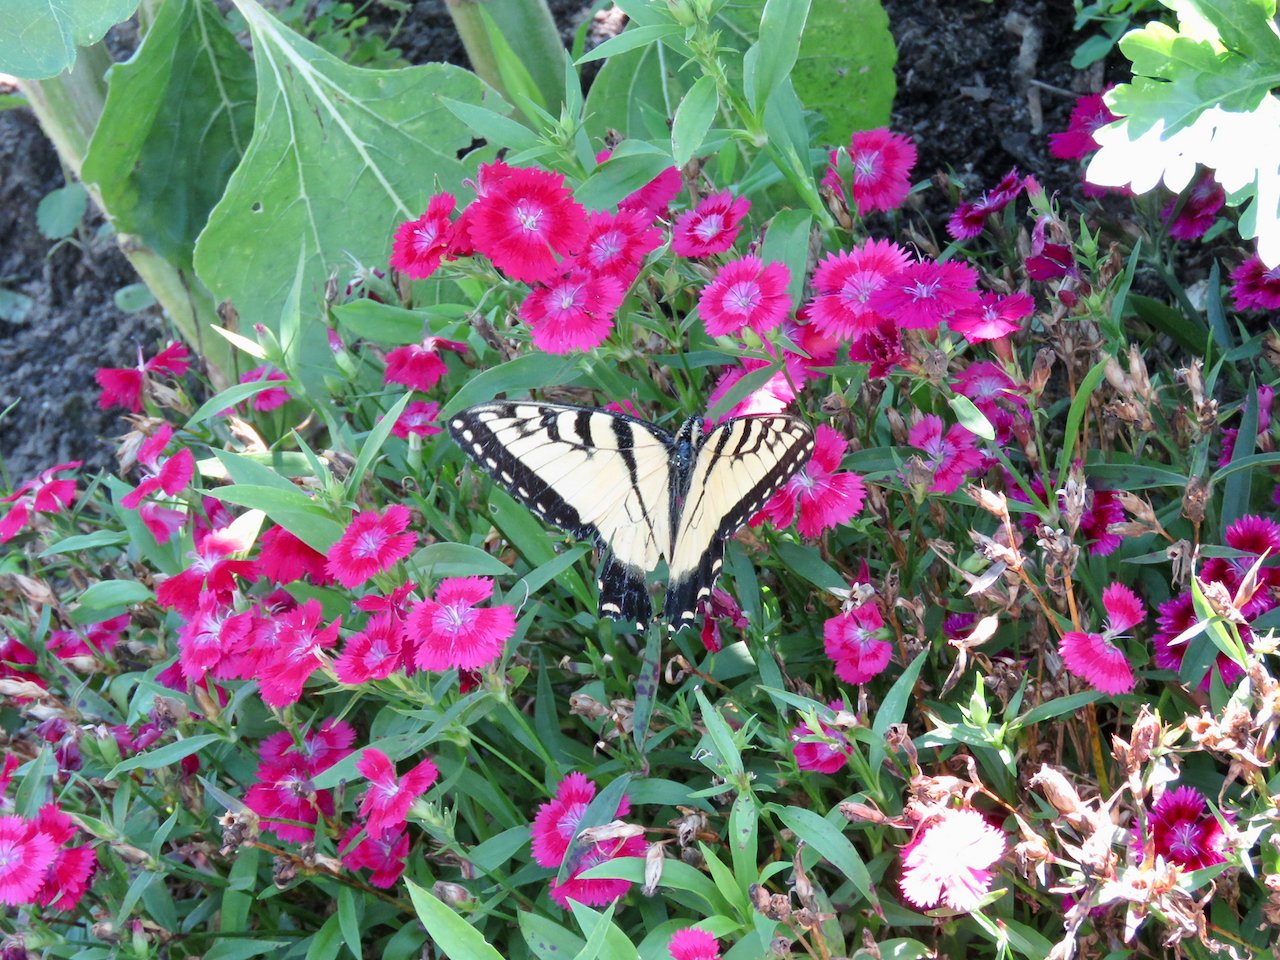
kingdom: Animalia
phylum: Arthropoda
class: Insecta
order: Lepidoptera
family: Papilionidae
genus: Pterourus
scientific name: Pterourus glaucus
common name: Eastern Tiger Swallowtail
